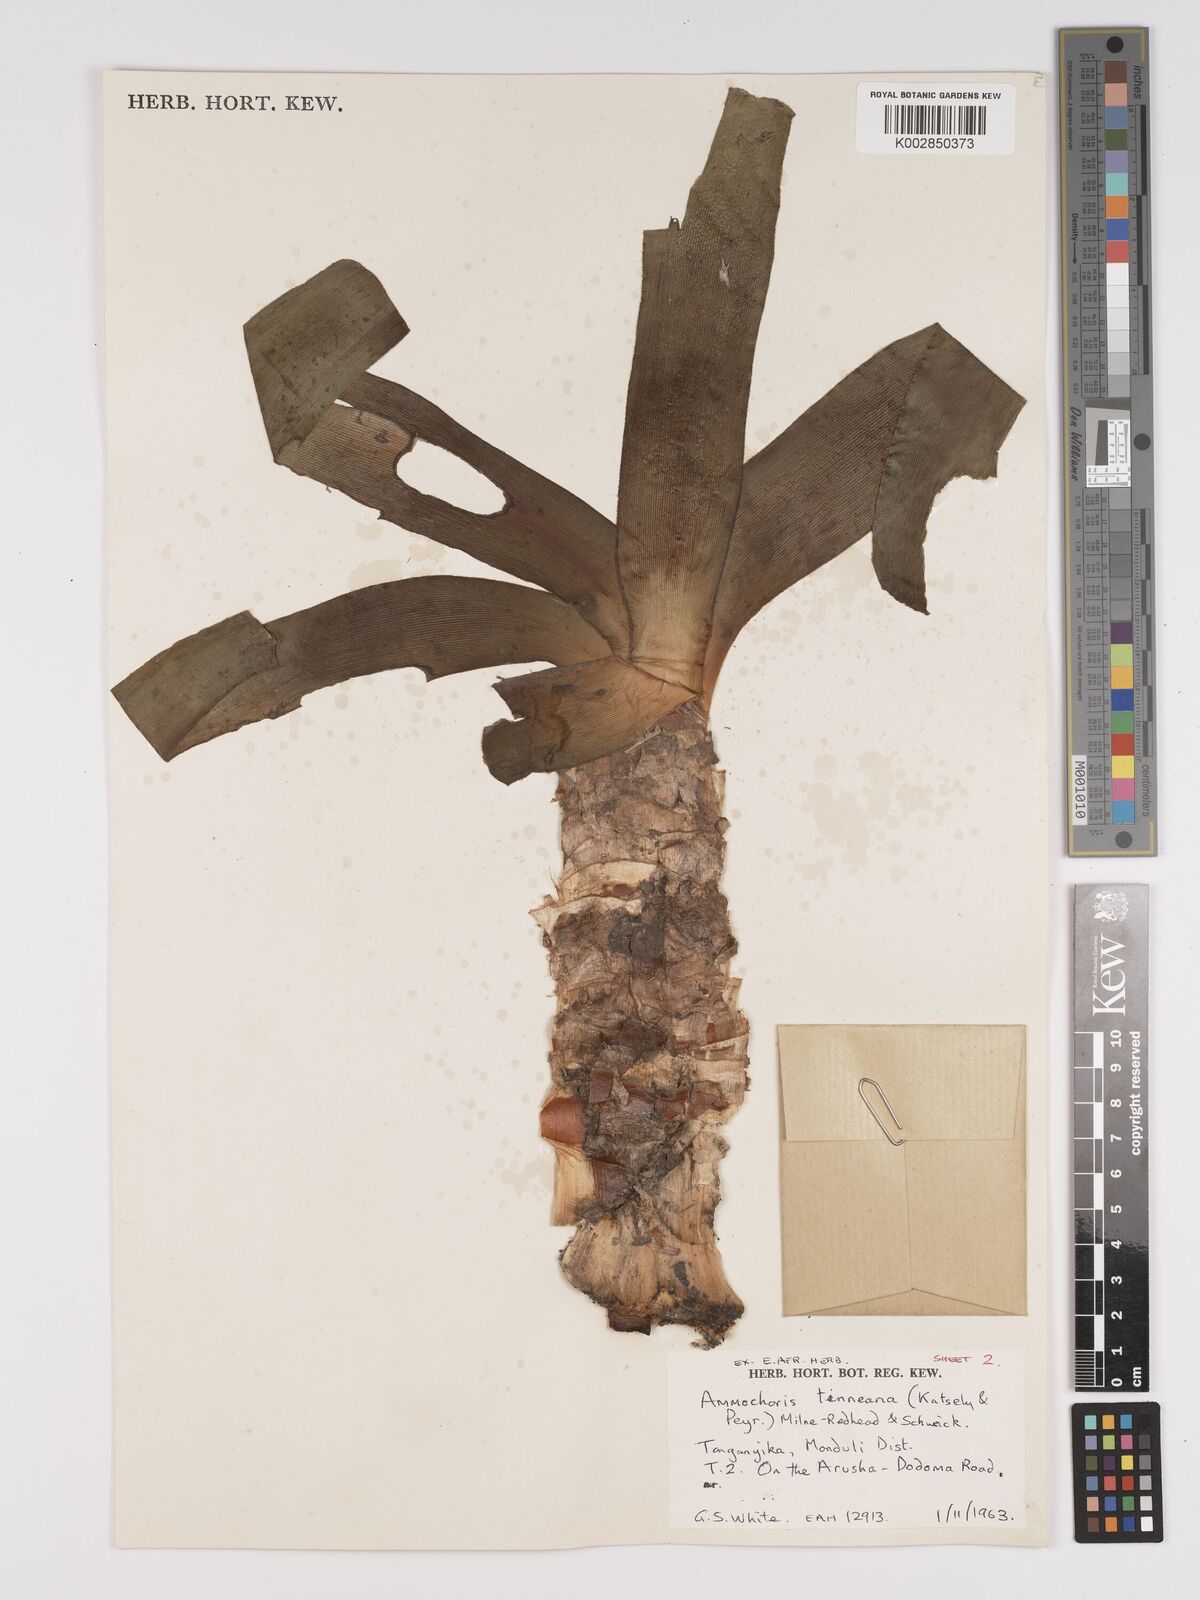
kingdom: Plantae
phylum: Tracheophyta
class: Liliopsida
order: Asparagales
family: Amaryllidaceae
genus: Ammocharis
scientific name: Ammocharis tinneana
